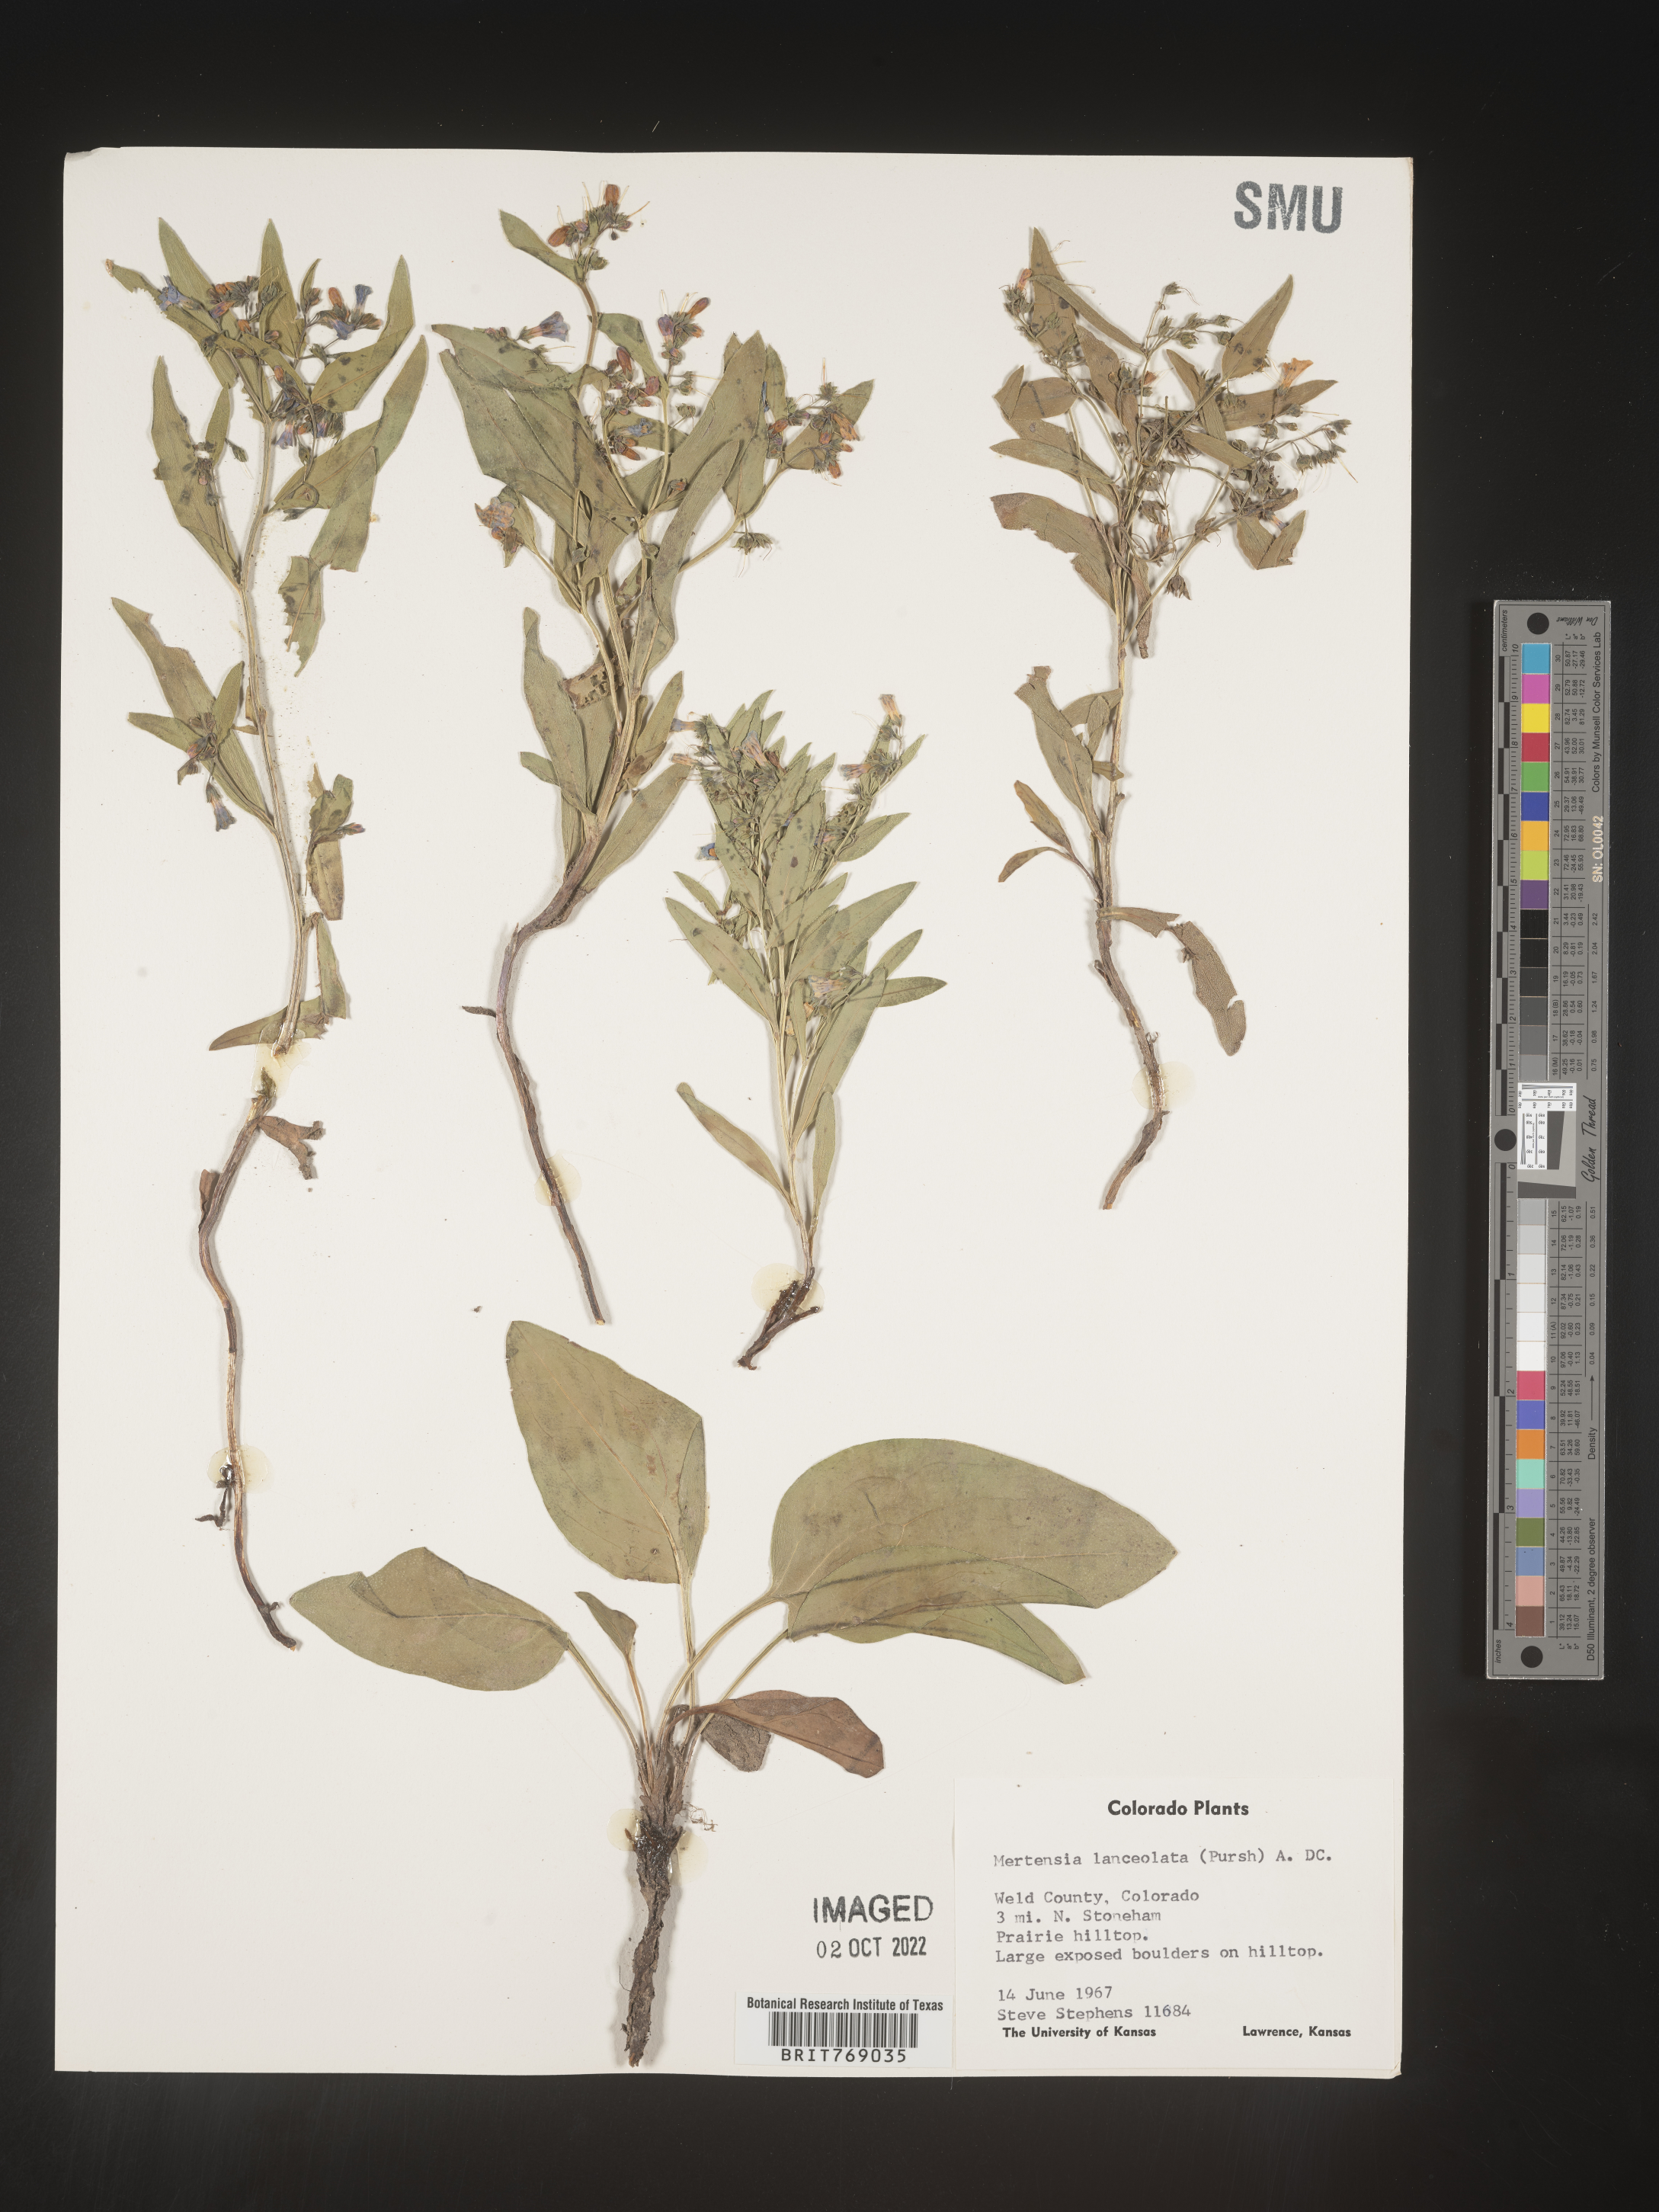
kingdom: Plantae
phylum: Tracheophyta
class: Magnoliopsida
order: Boraginales
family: Boraginaceae
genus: Mertensia
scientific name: Mertensia
